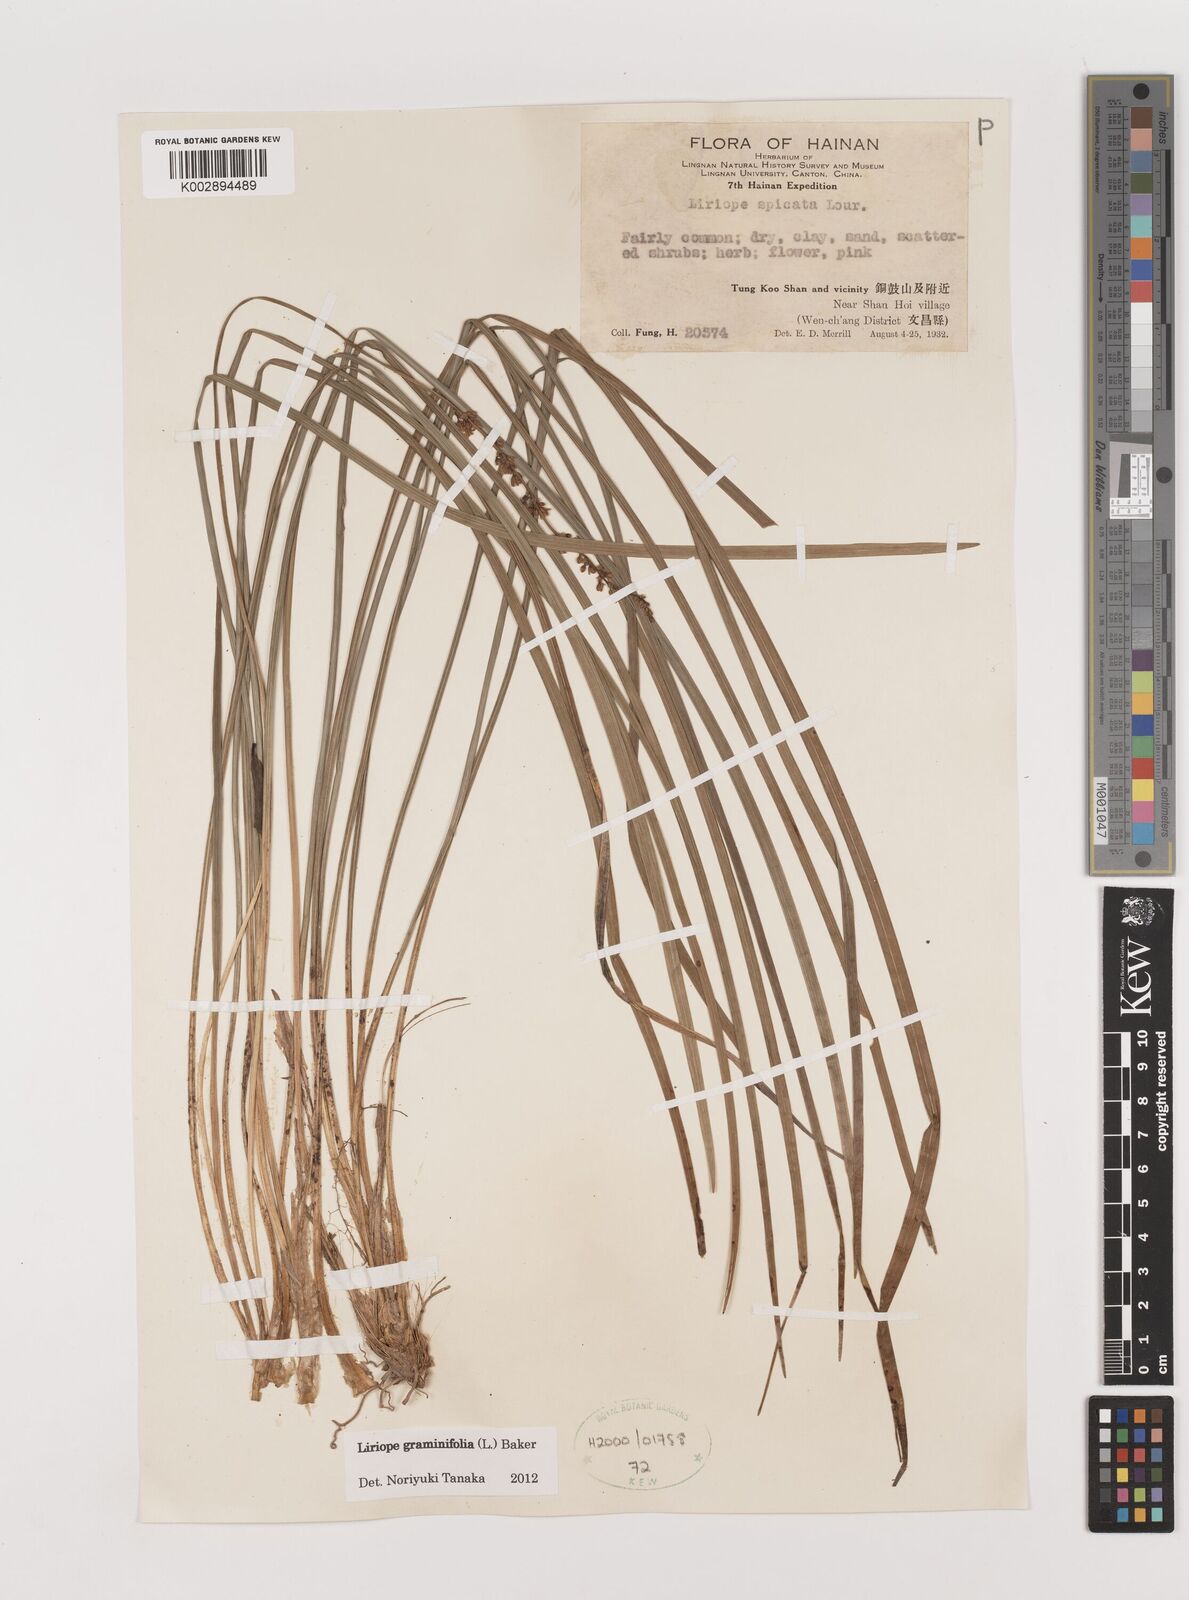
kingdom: Plantae
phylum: Tracheophyta
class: Liliopsida
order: Asparagales
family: Asparagaceae
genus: Liriope
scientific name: Liriope graminifolia
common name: Lilyturf
